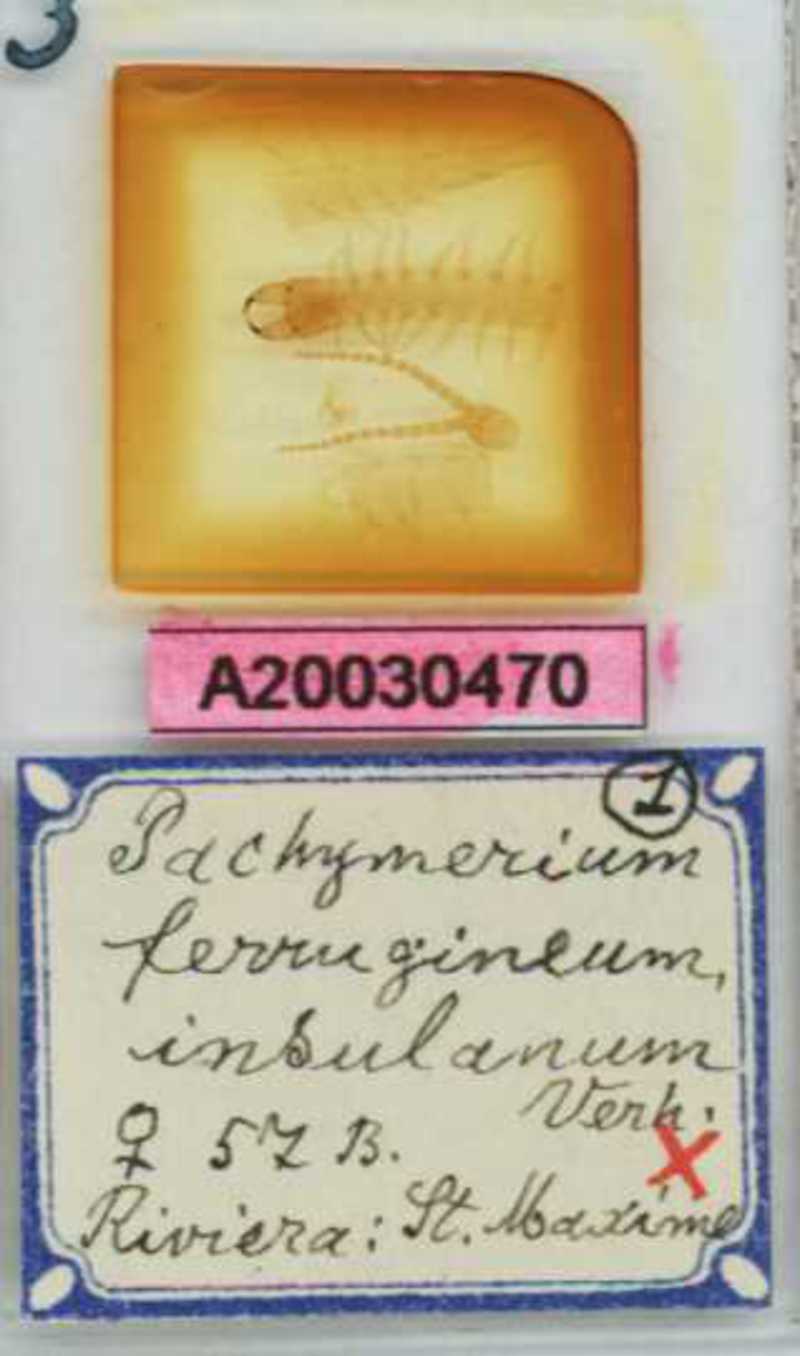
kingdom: Animalia
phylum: Arthropoda
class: Chilopoda
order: Geophilomorpha
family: Geophilidae
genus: Pachymerium
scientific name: Pachymerium ferrugineum
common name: Centipede
